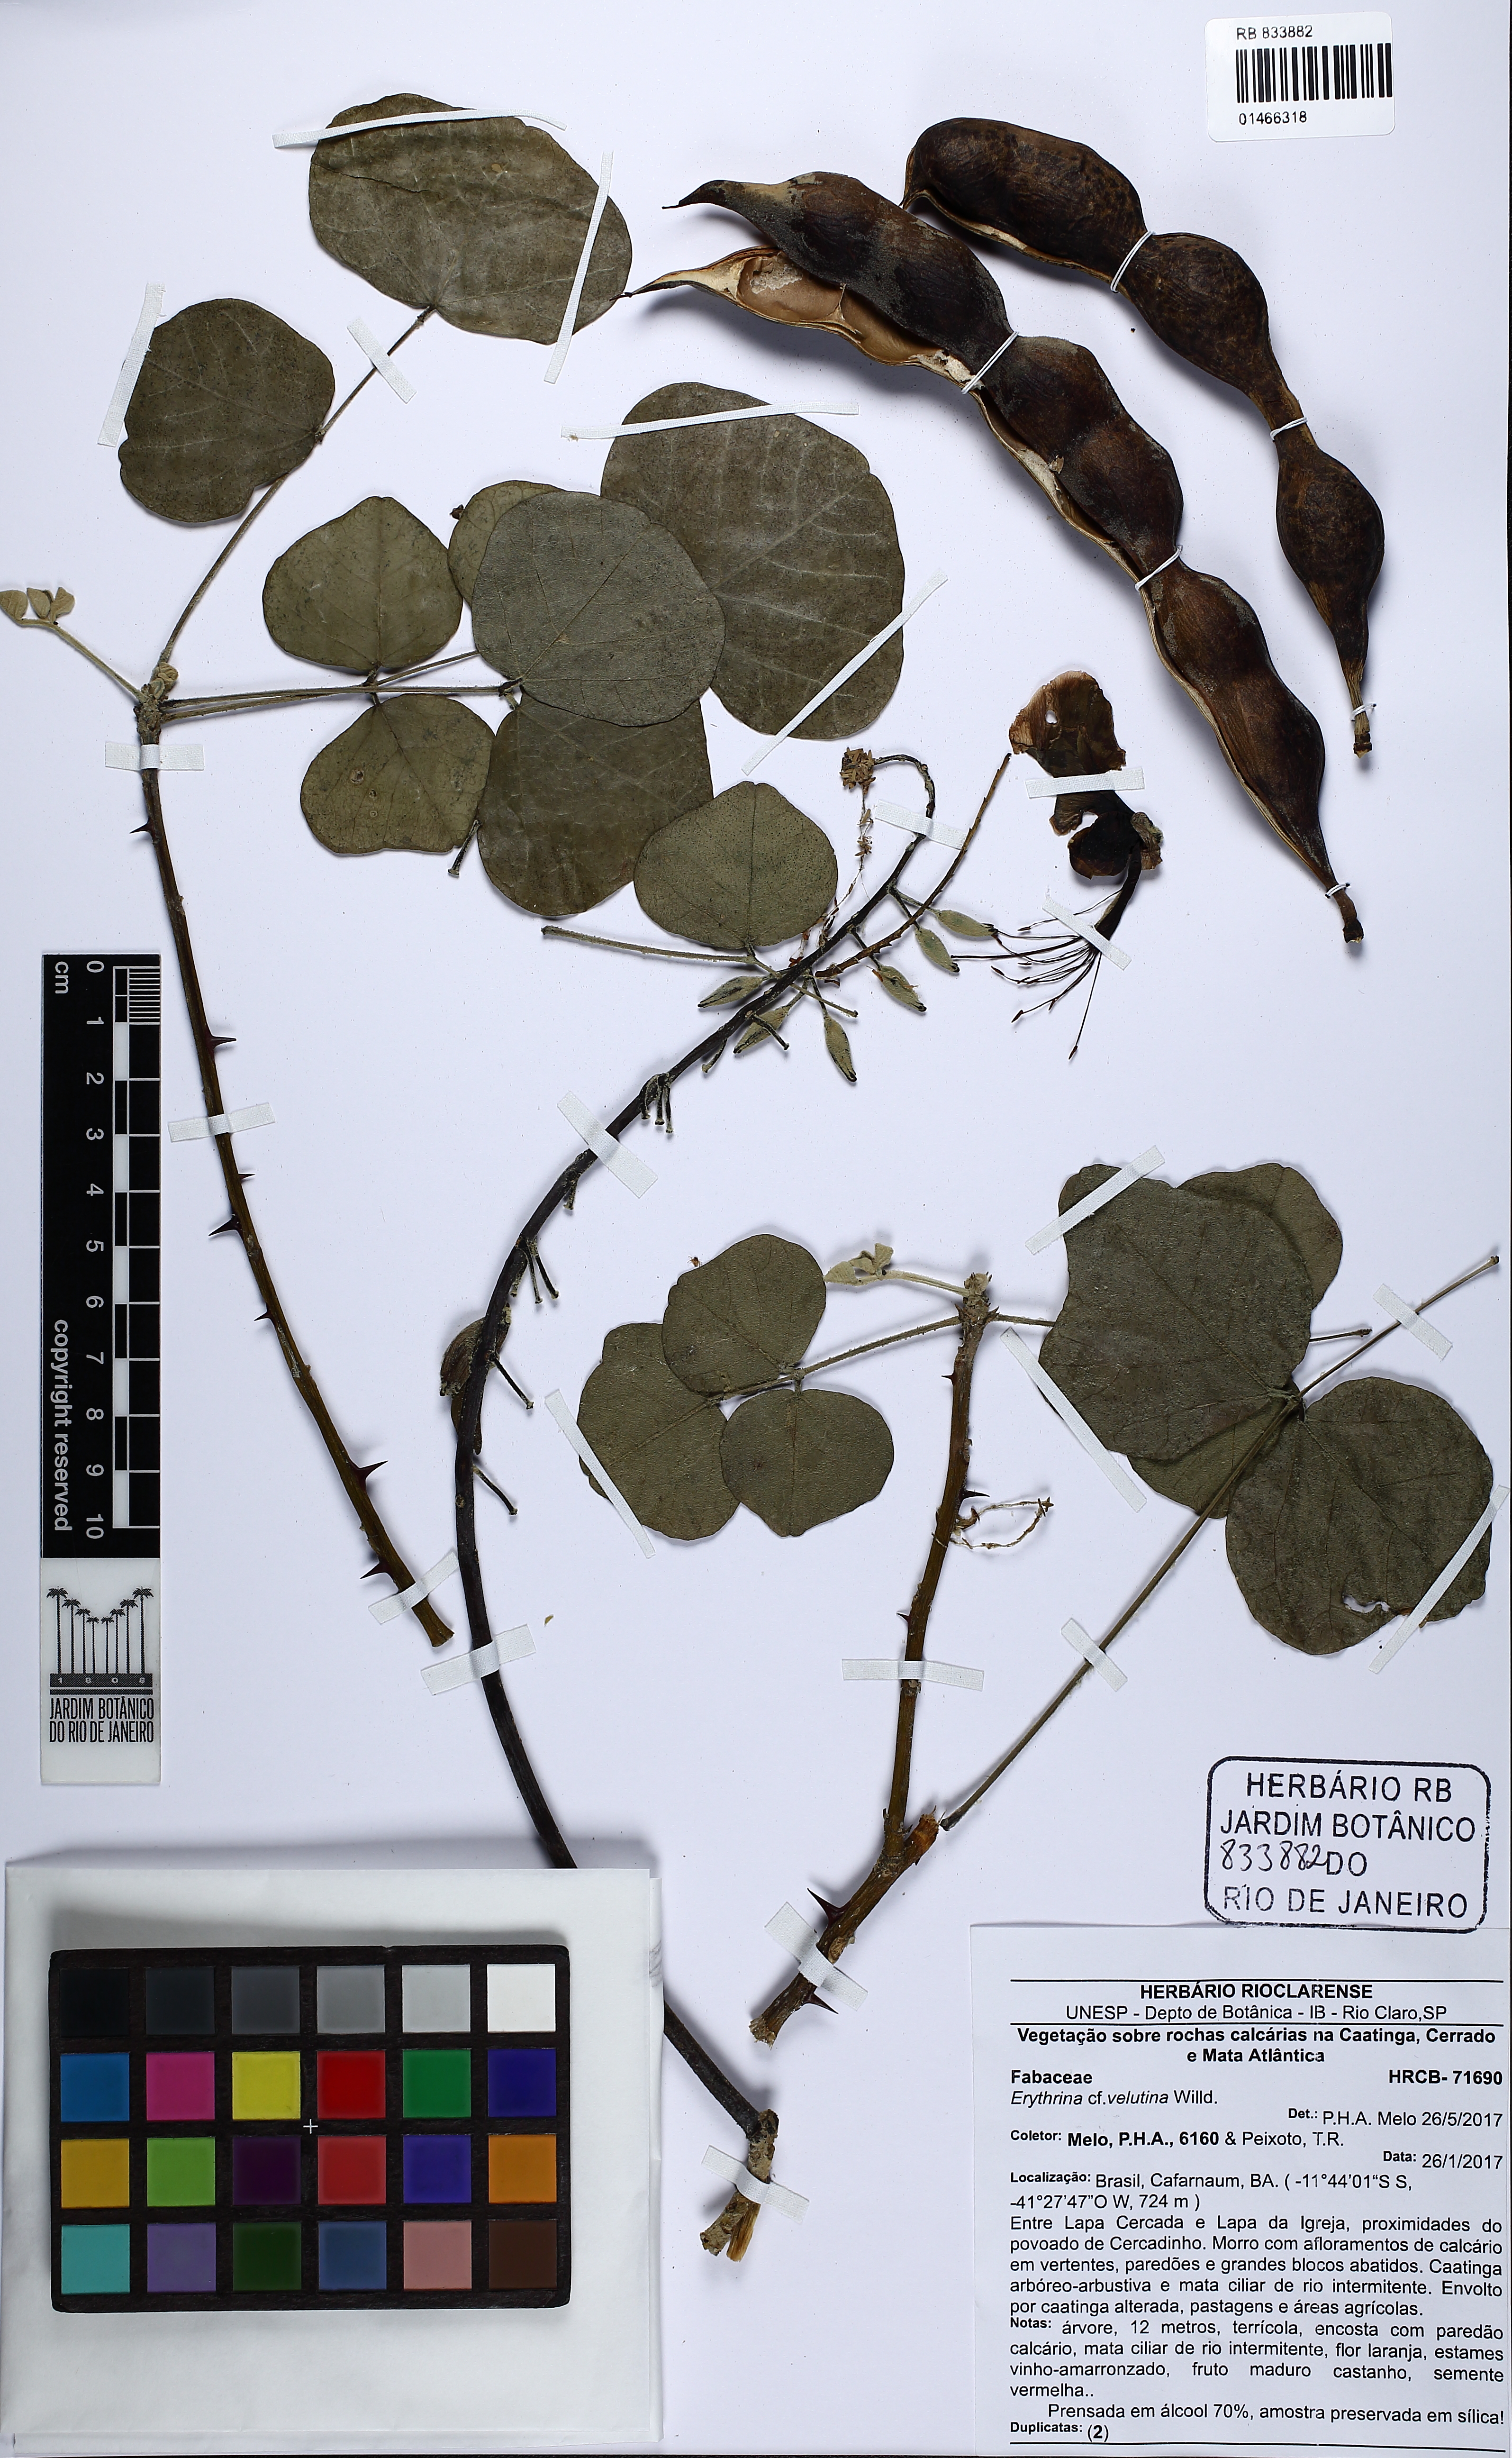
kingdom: Plantae
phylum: Tracheophyta
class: Magnoliopsida
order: Fabales
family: Fabaceae
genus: Erythrina
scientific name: Erythrina velutina
